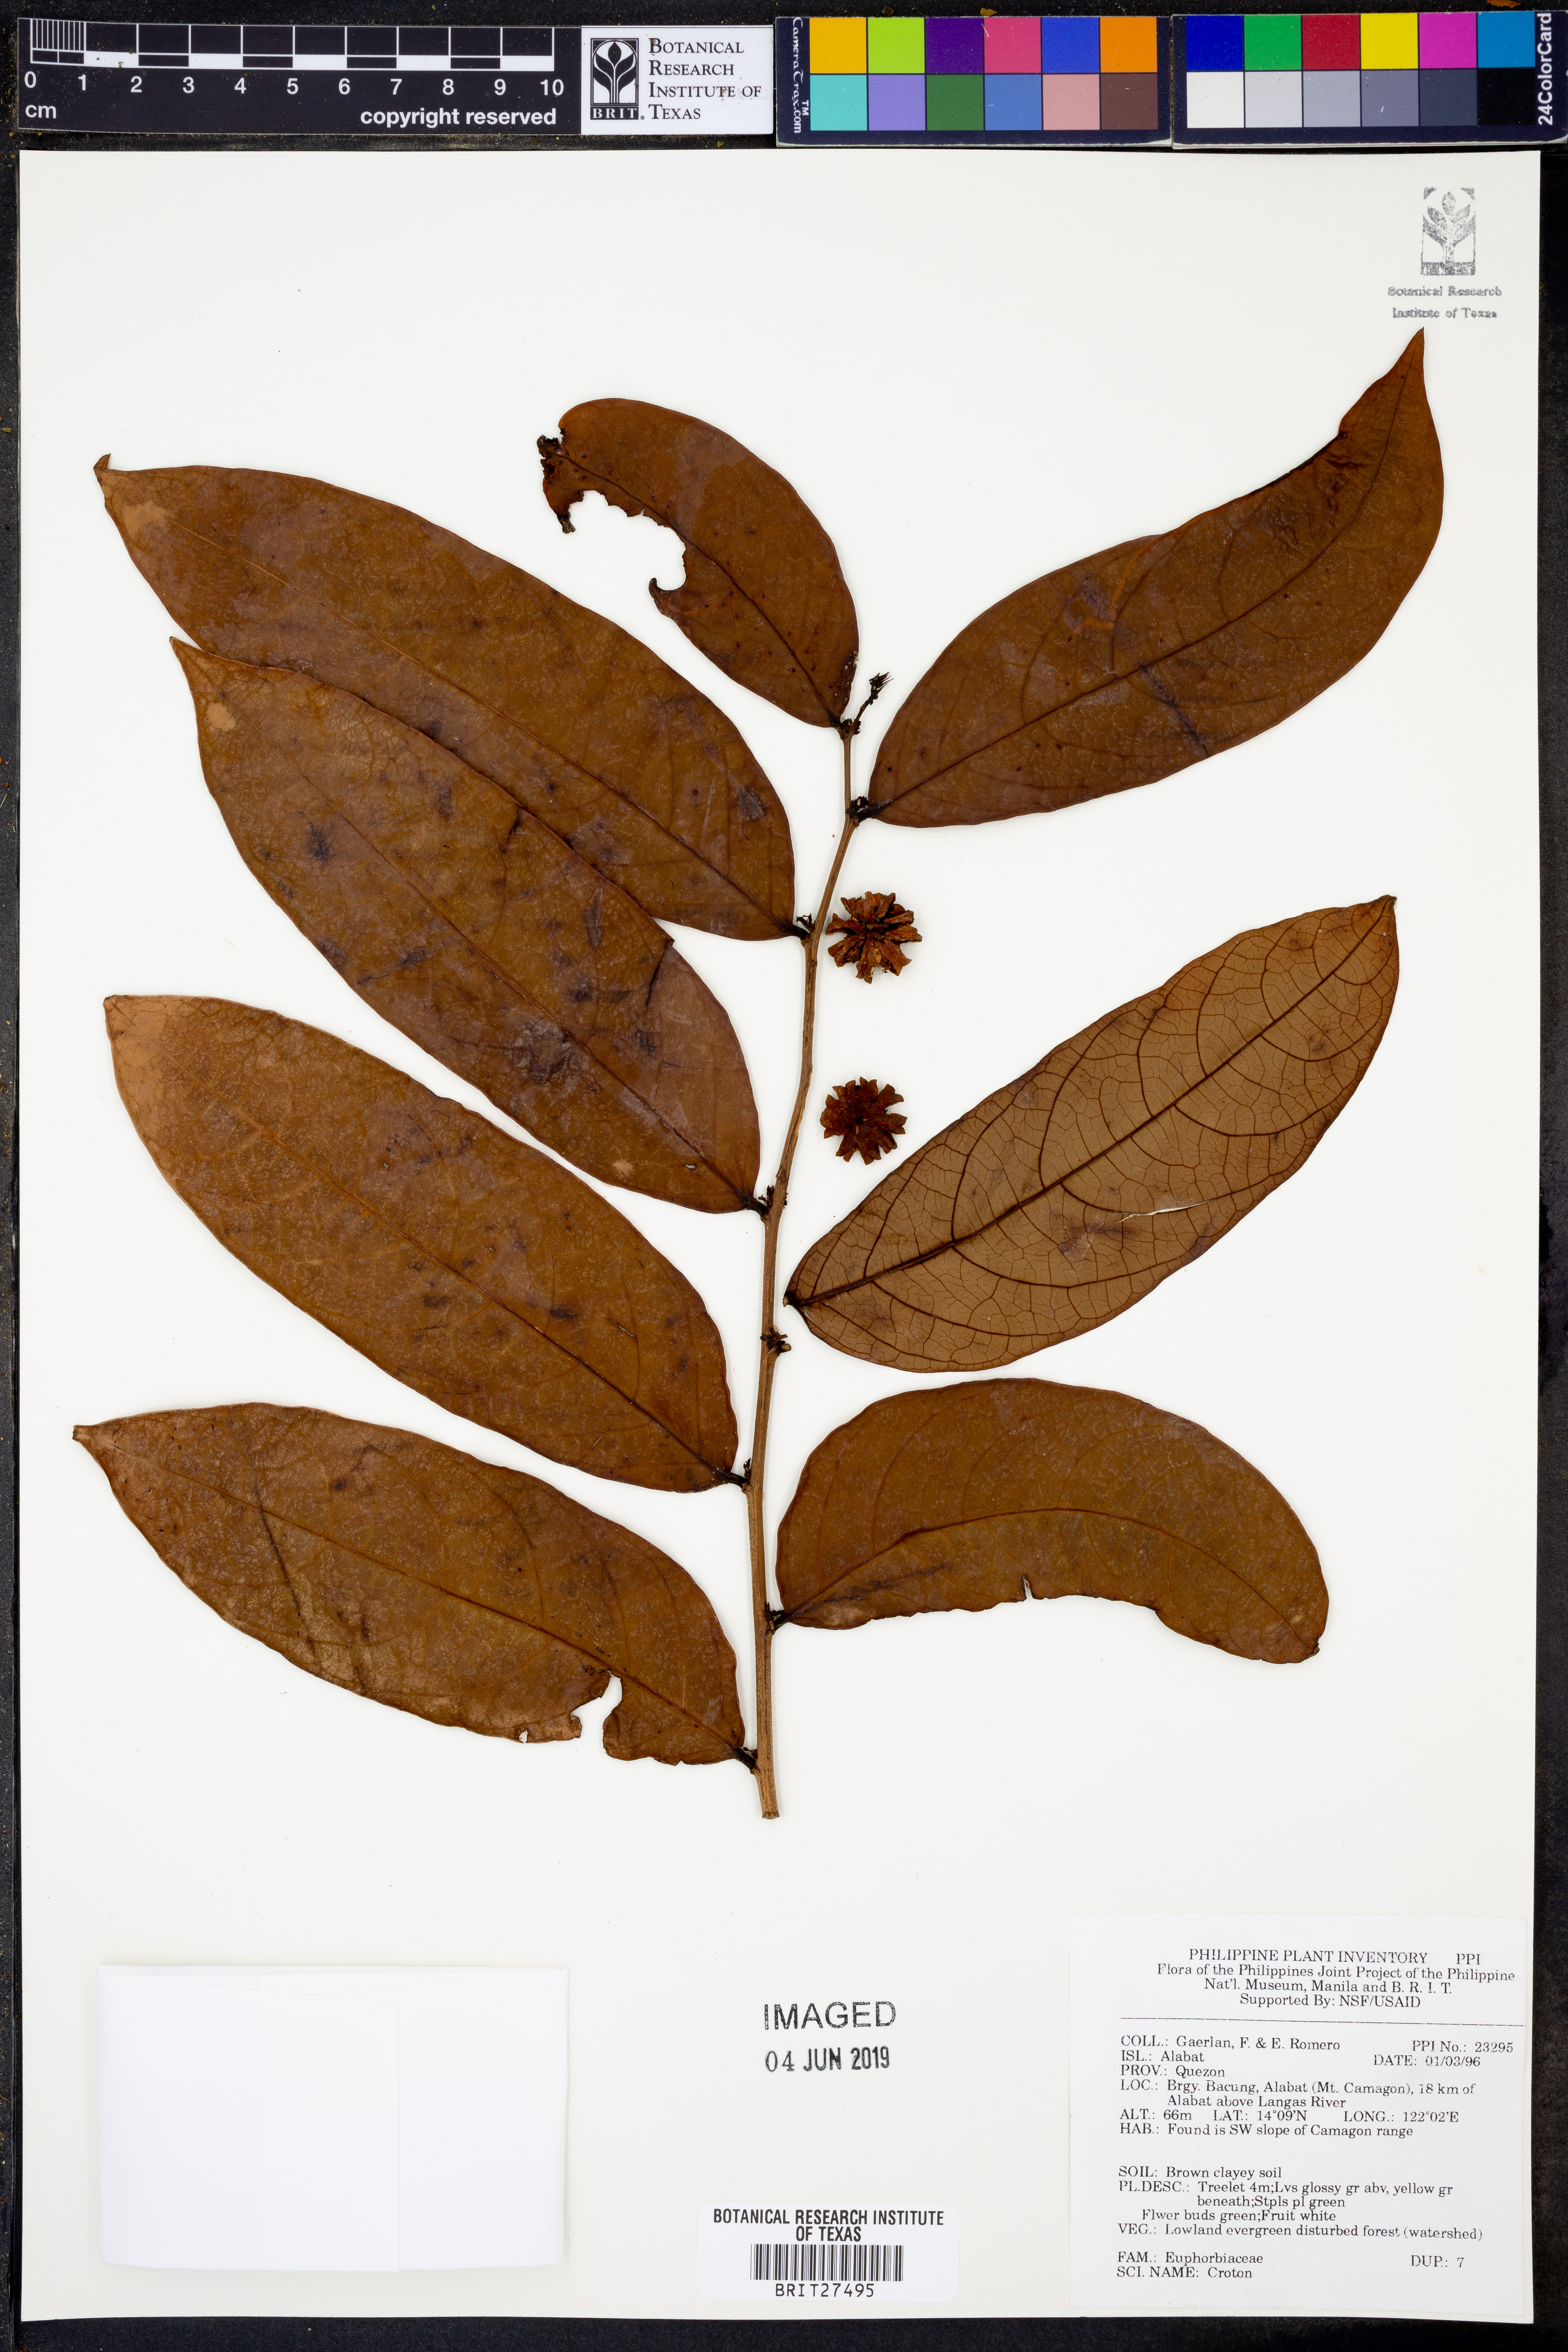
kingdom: Plantae
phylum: Tracheophyta
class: Magnoliopsida
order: Malpighiales
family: Euphorbiaceae
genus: Croton
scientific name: Croton
